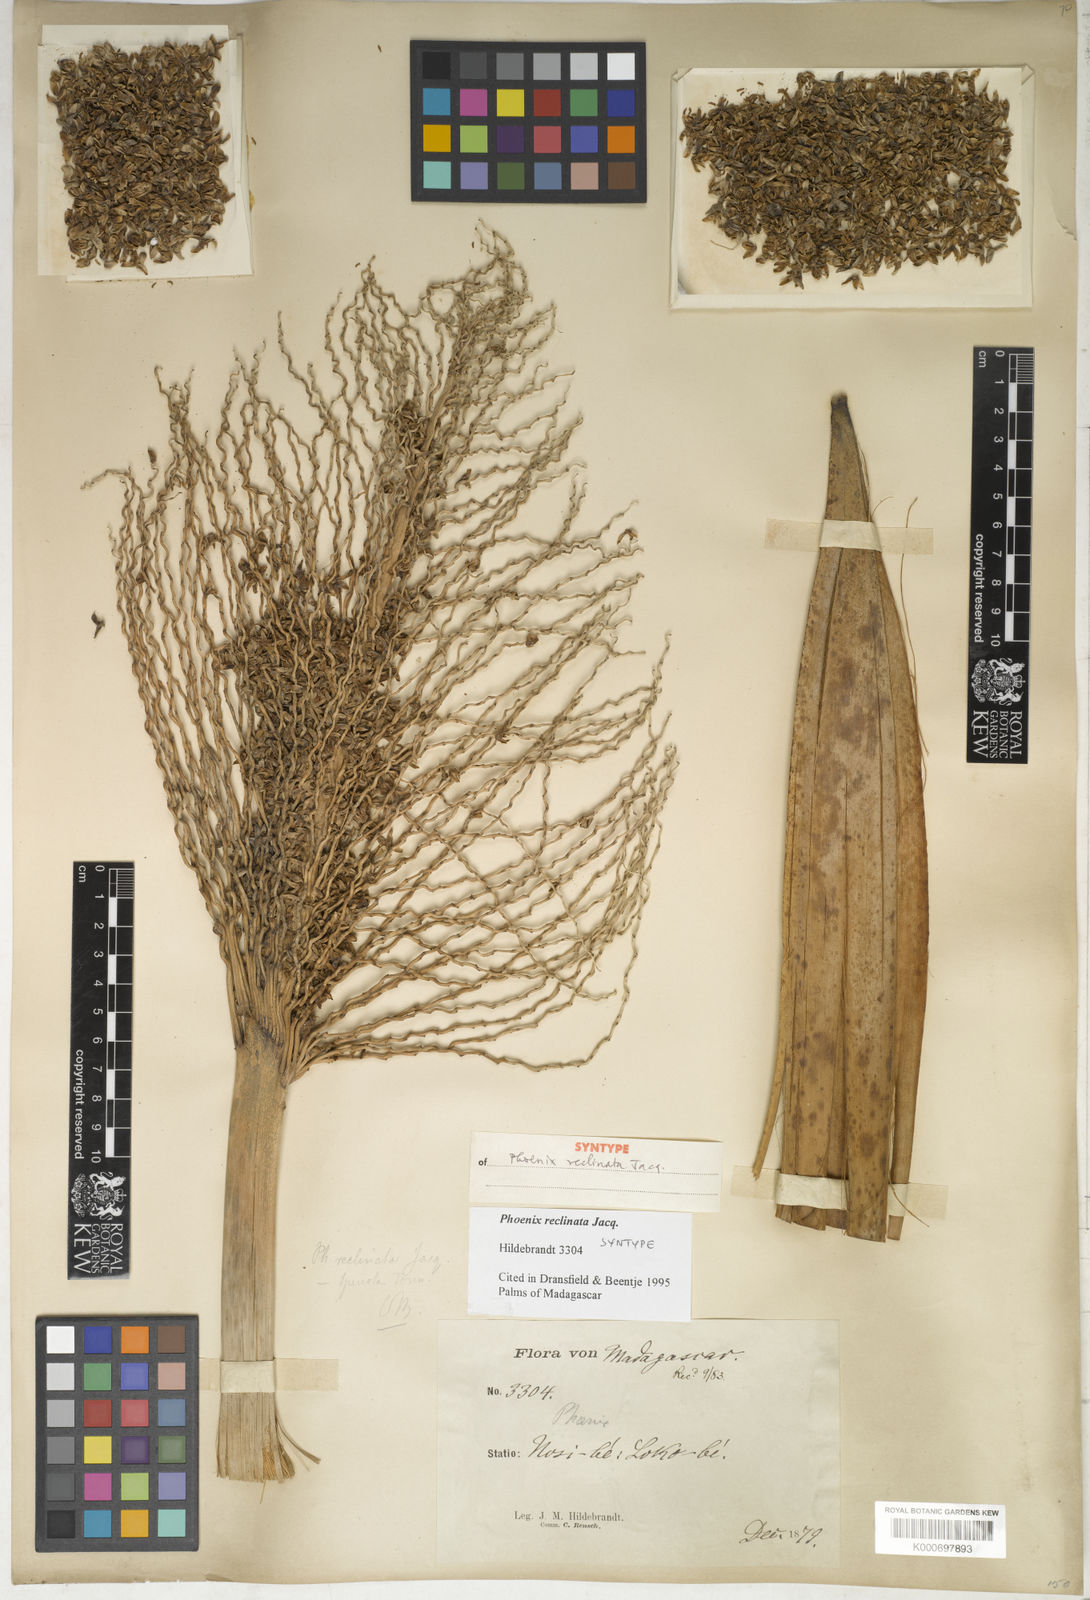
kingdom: Plantae
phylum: Tracheophyta
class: Liliopsida
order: Arecales
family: Arecaceae
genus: Phoenix
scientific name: Phoenix reclinata
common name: Senegal date palm
